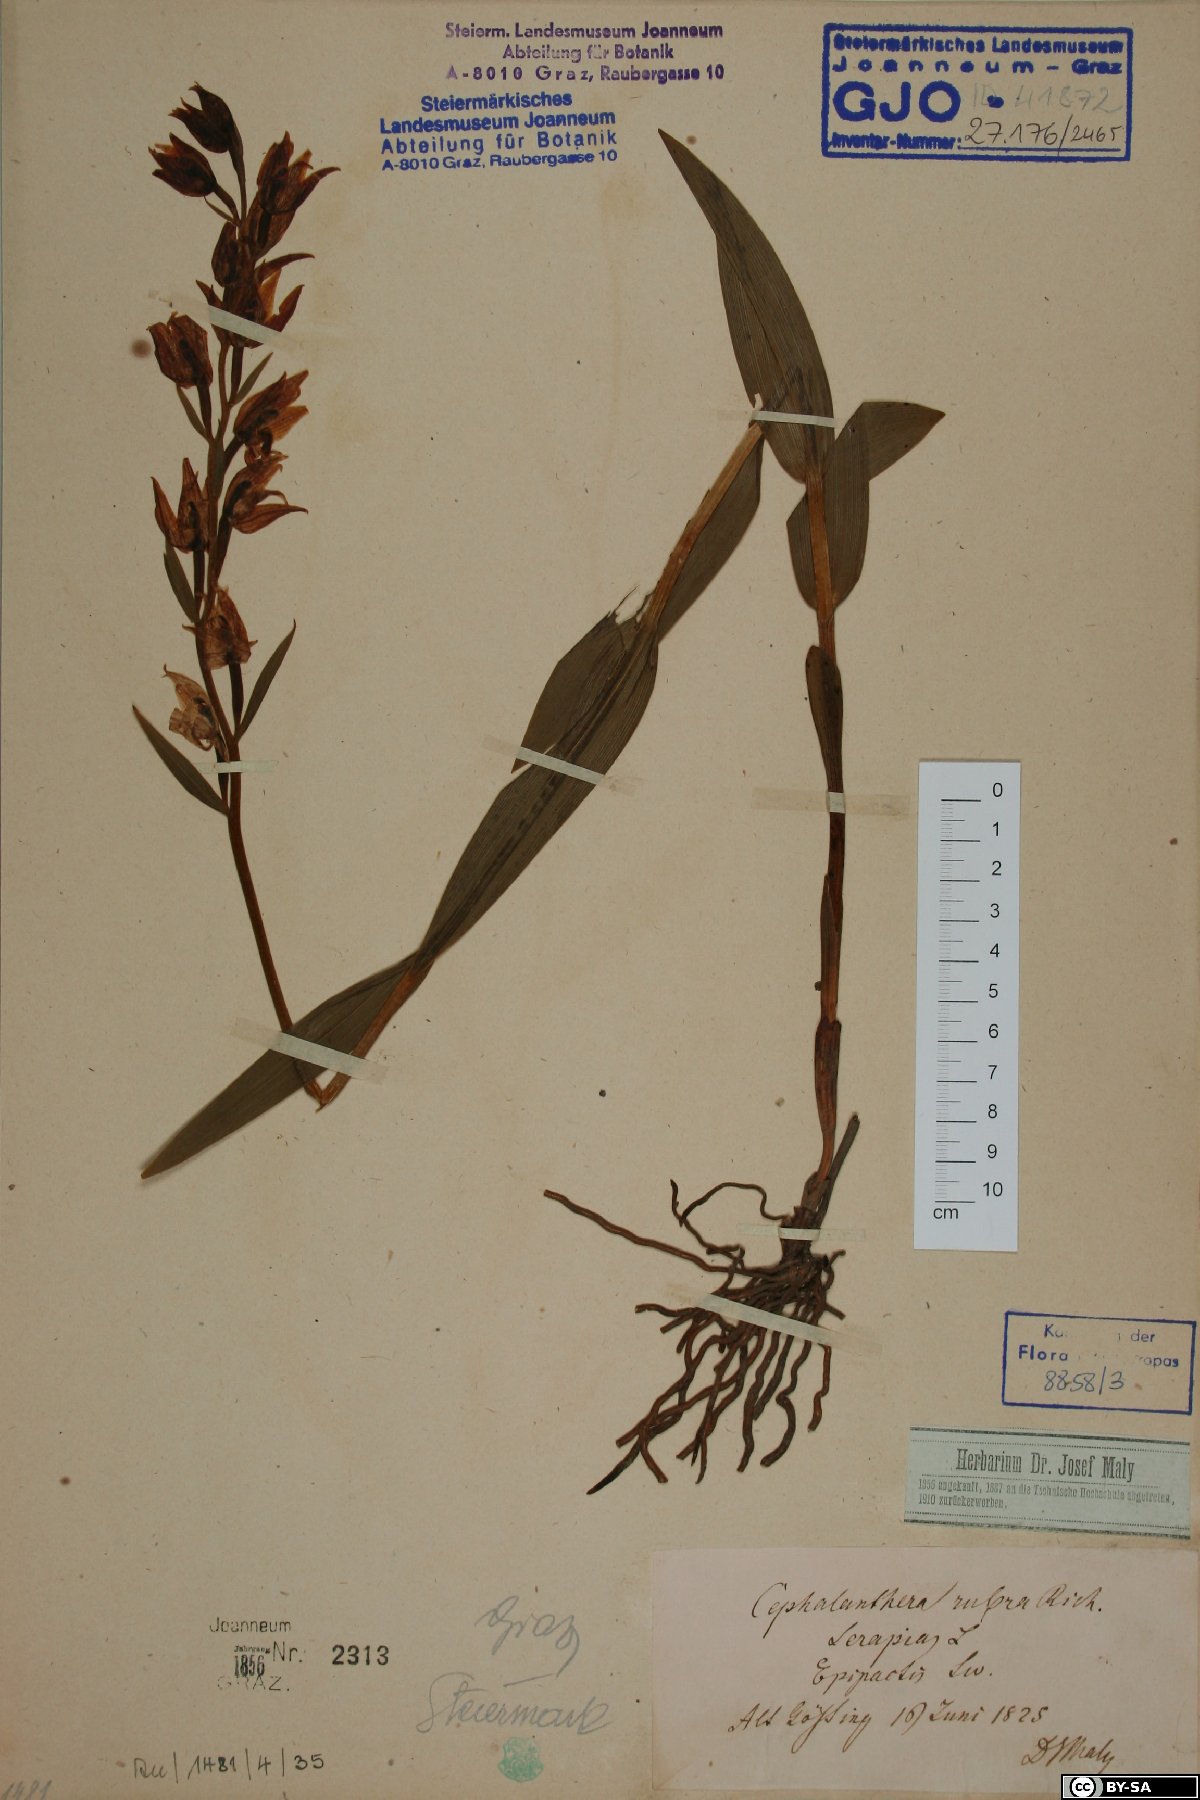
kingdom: Plantae
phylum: Tracheophyta
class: Liliopsida
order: Asparagales
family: Orchidaceae
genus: Cephalanthera
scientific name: Cephalanthera rubra
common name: Red helleborine
